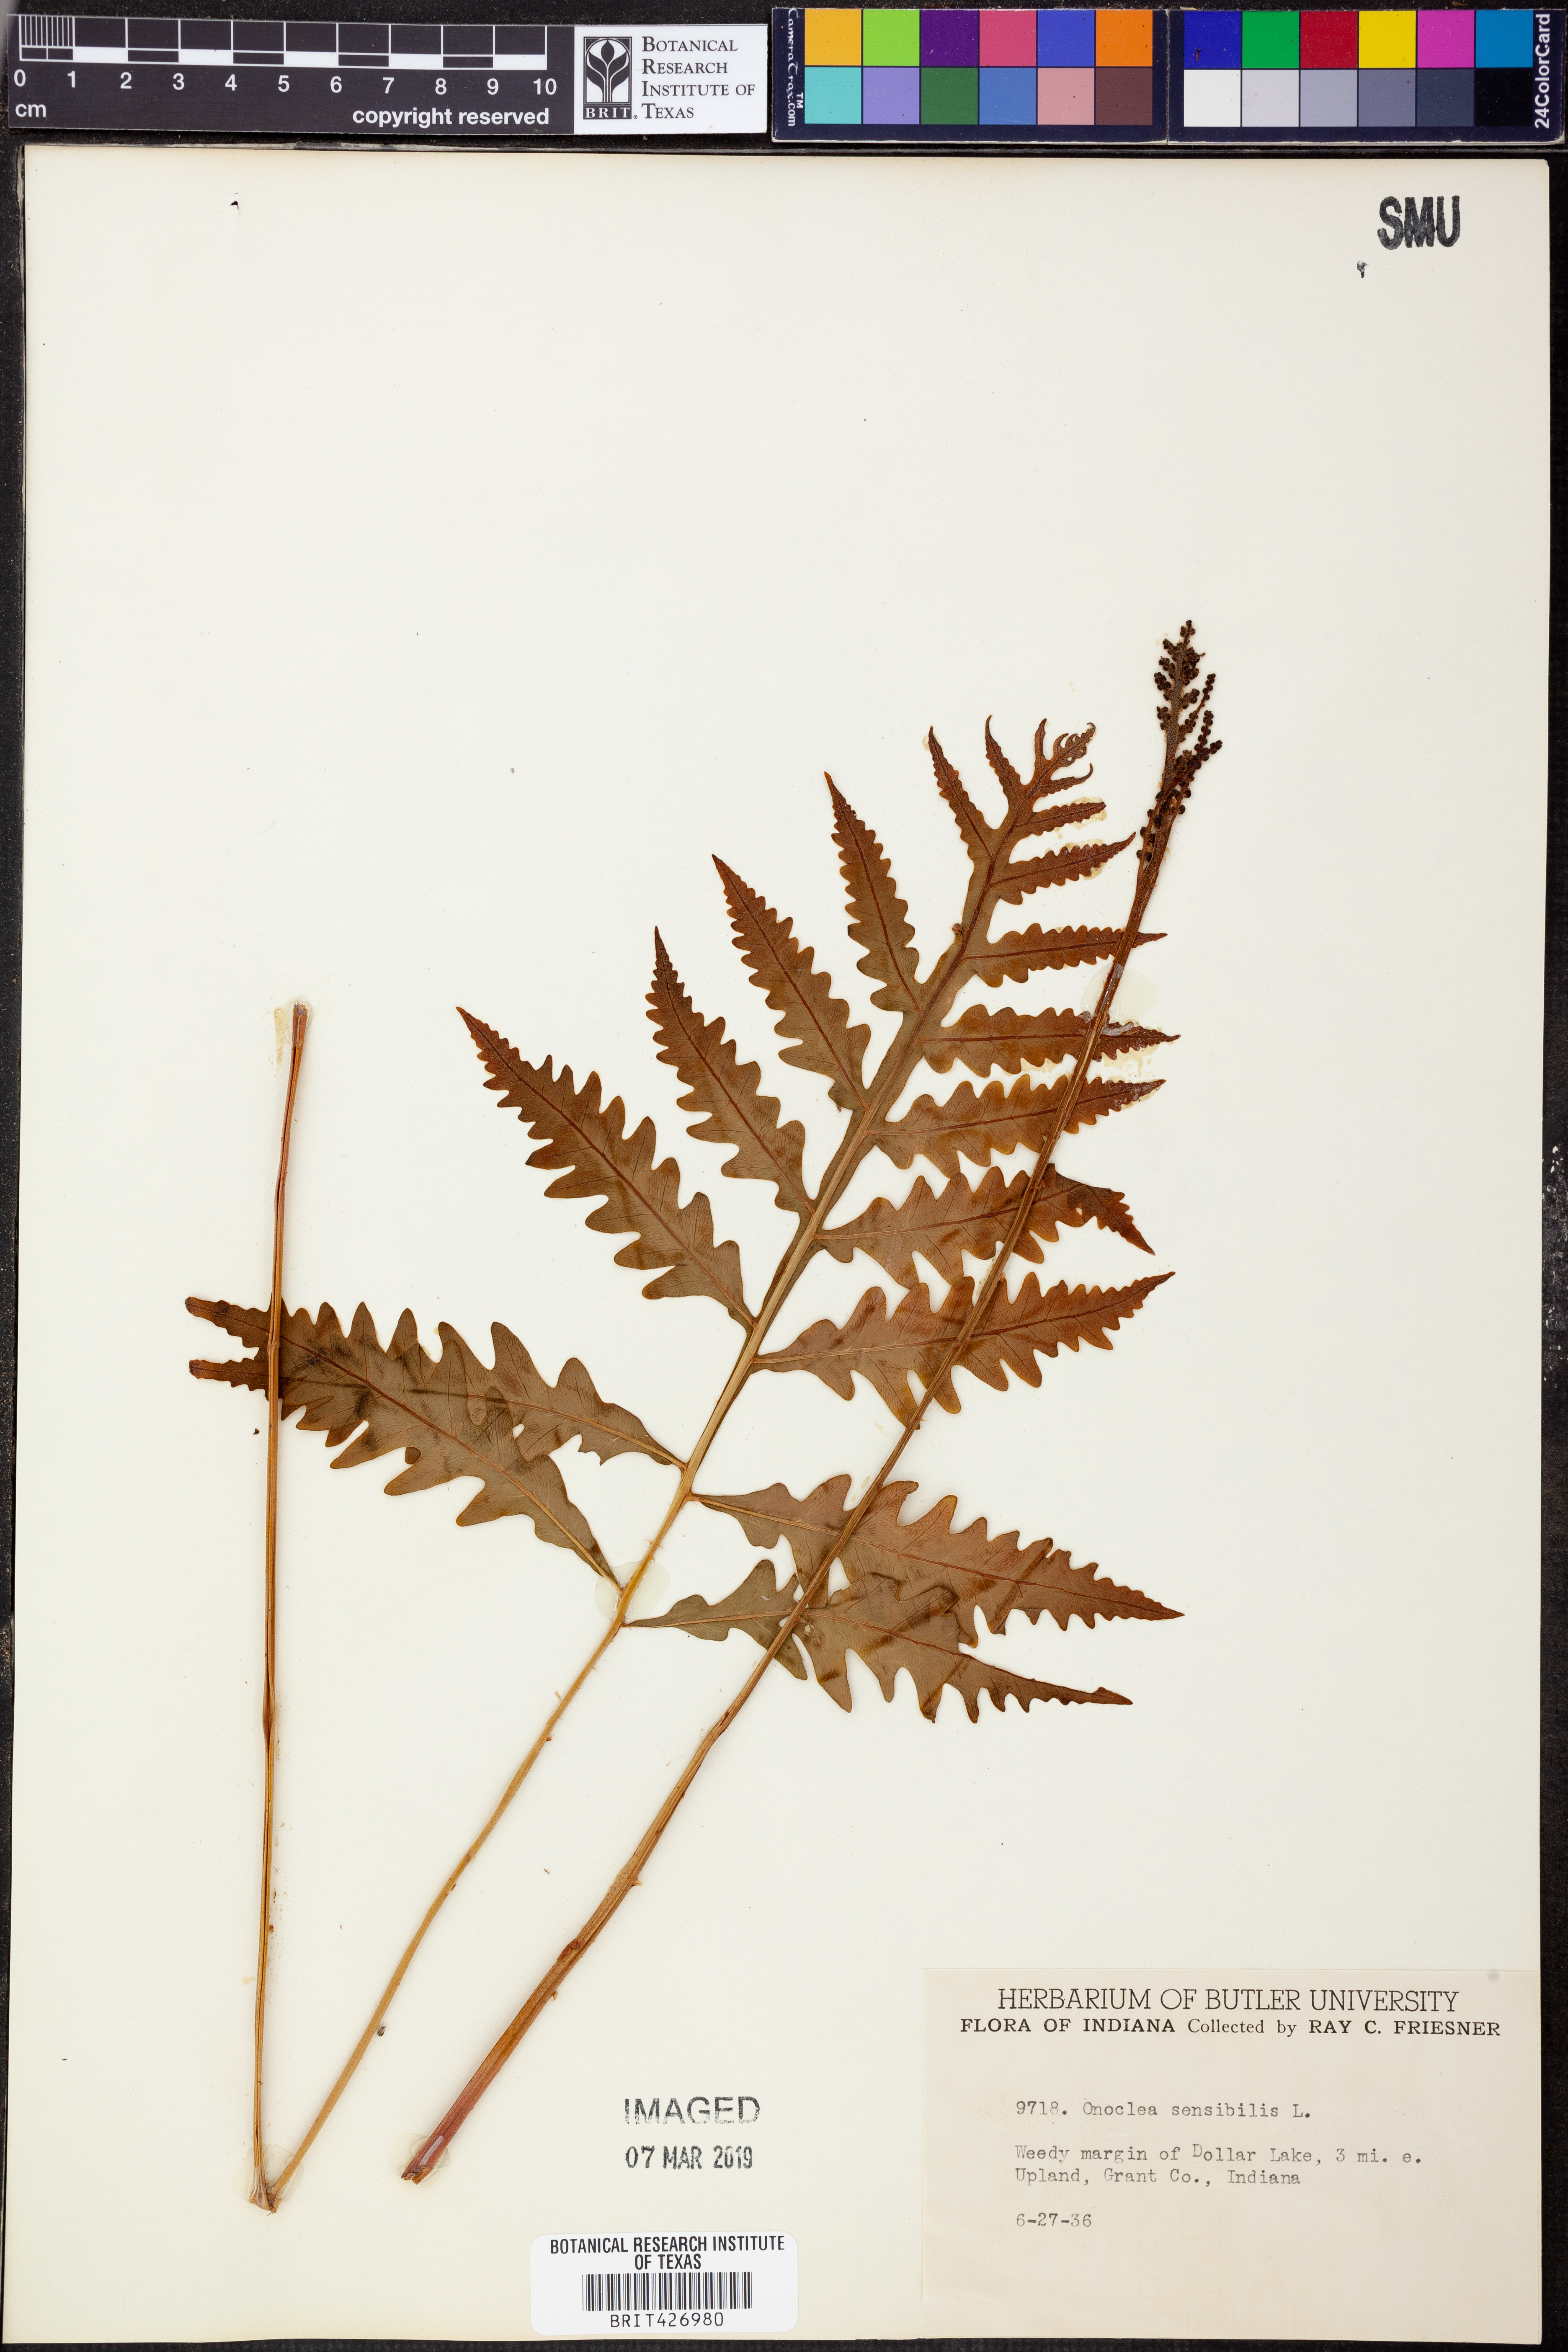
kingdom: Plantae
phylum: Tracheophyta
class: Polypodiopsida
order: Polypodiales
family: Onocleaceae
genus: Onoclea
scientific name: Onoclea sensibilis
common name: Sensitive fern
